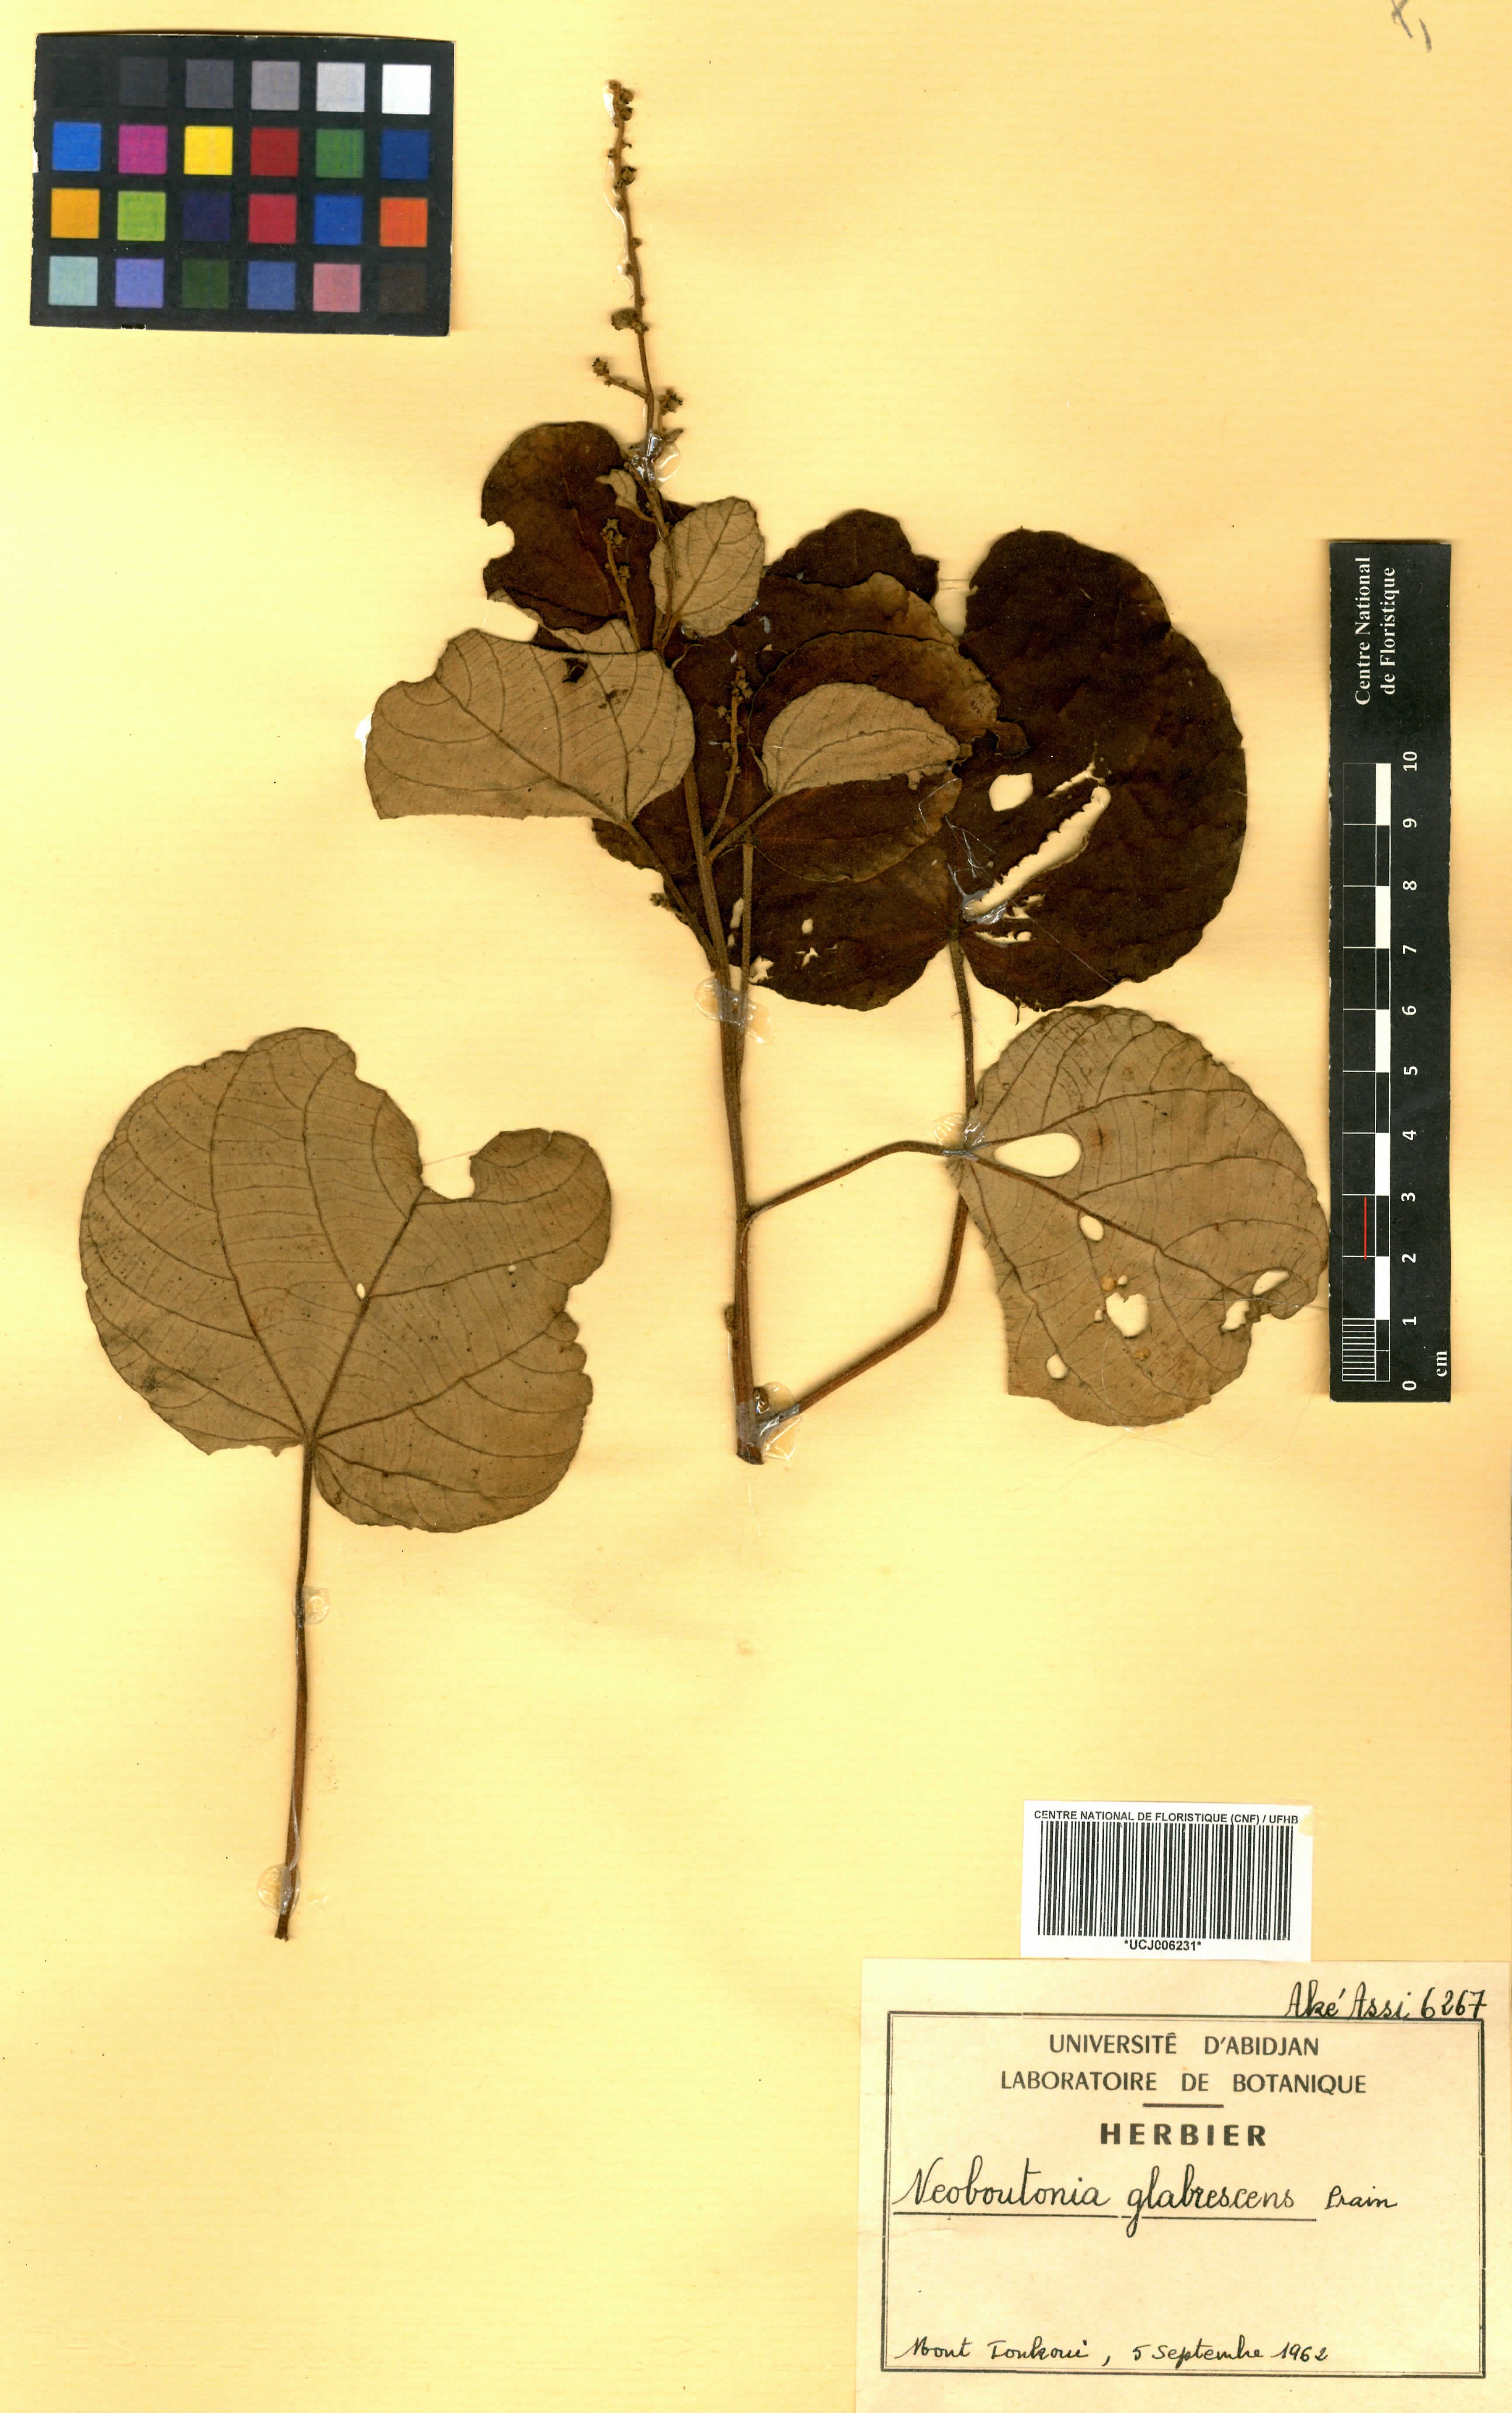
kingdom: Plantae
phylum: Tracheophyta
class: Magnoliopsida
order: Malpighiales
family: Euphorbiaceae
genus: Neoboutonia
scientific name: Neoboutonia mannii
